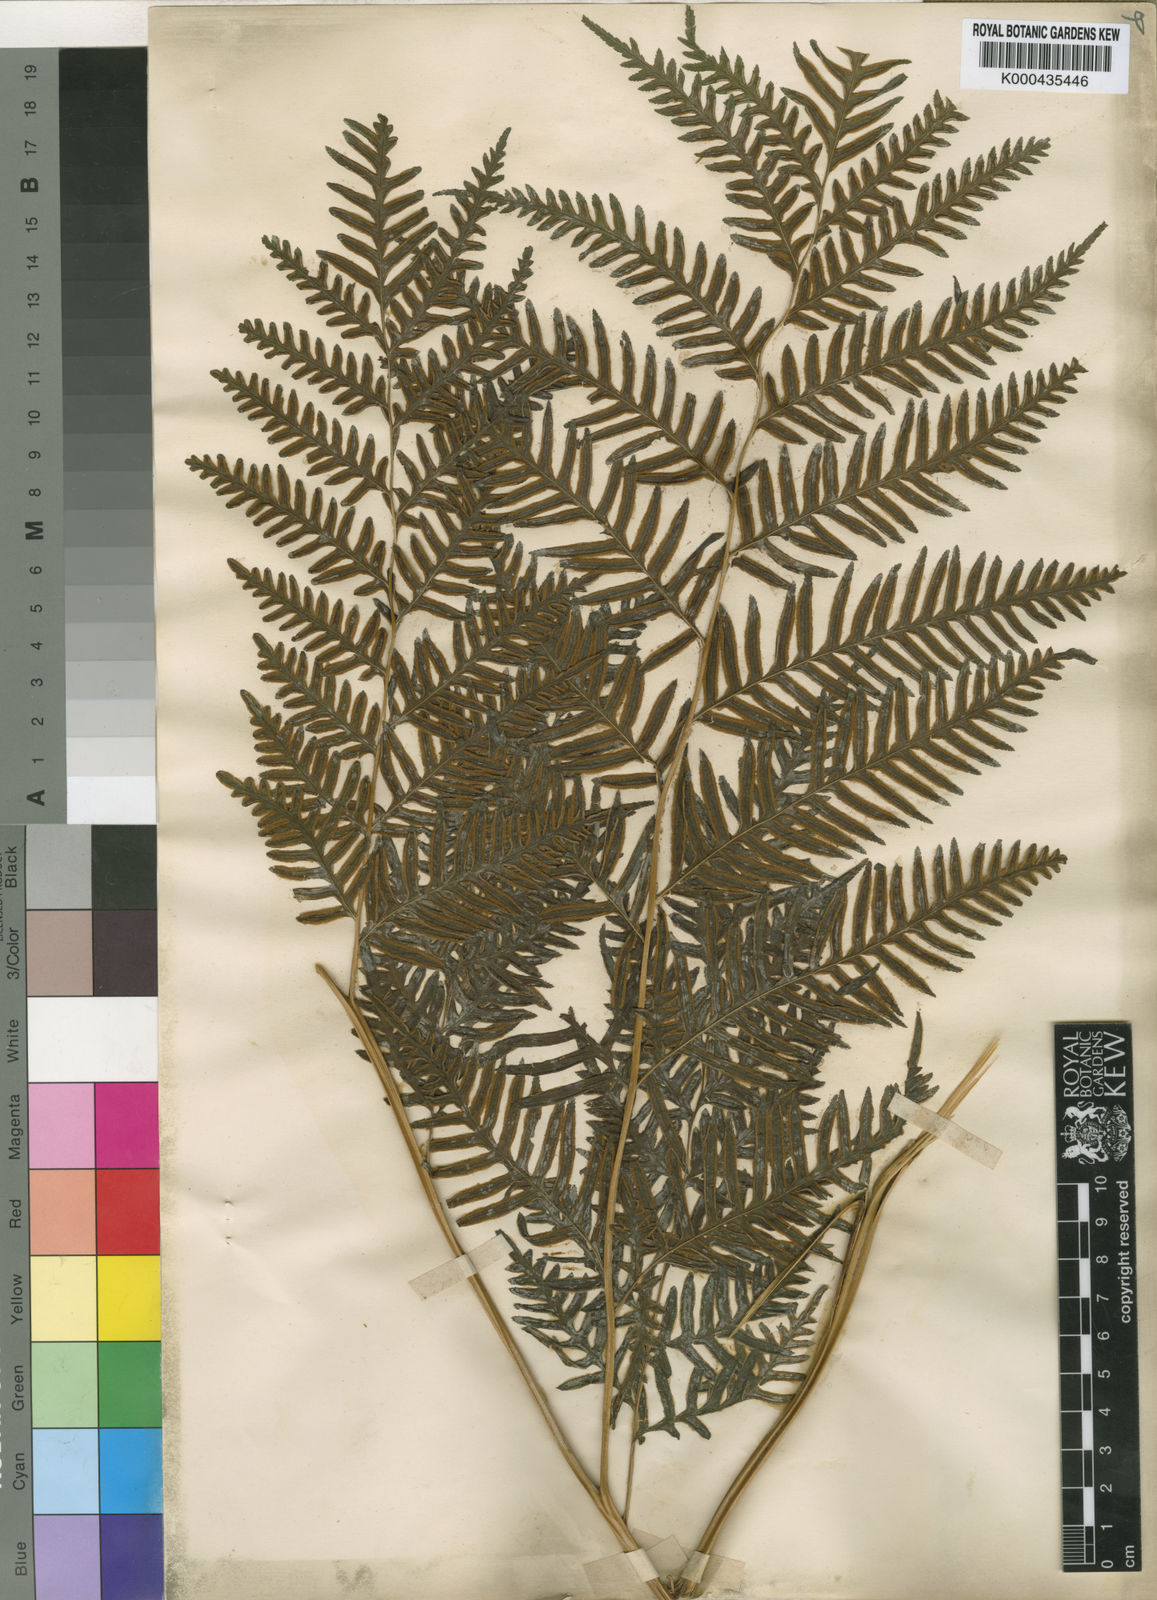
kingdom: Plantae
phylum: Tracheophyta
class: Polypodiopsida
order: Polypodiales
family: Pteridaceae
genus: Pteris
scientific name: Pteris
